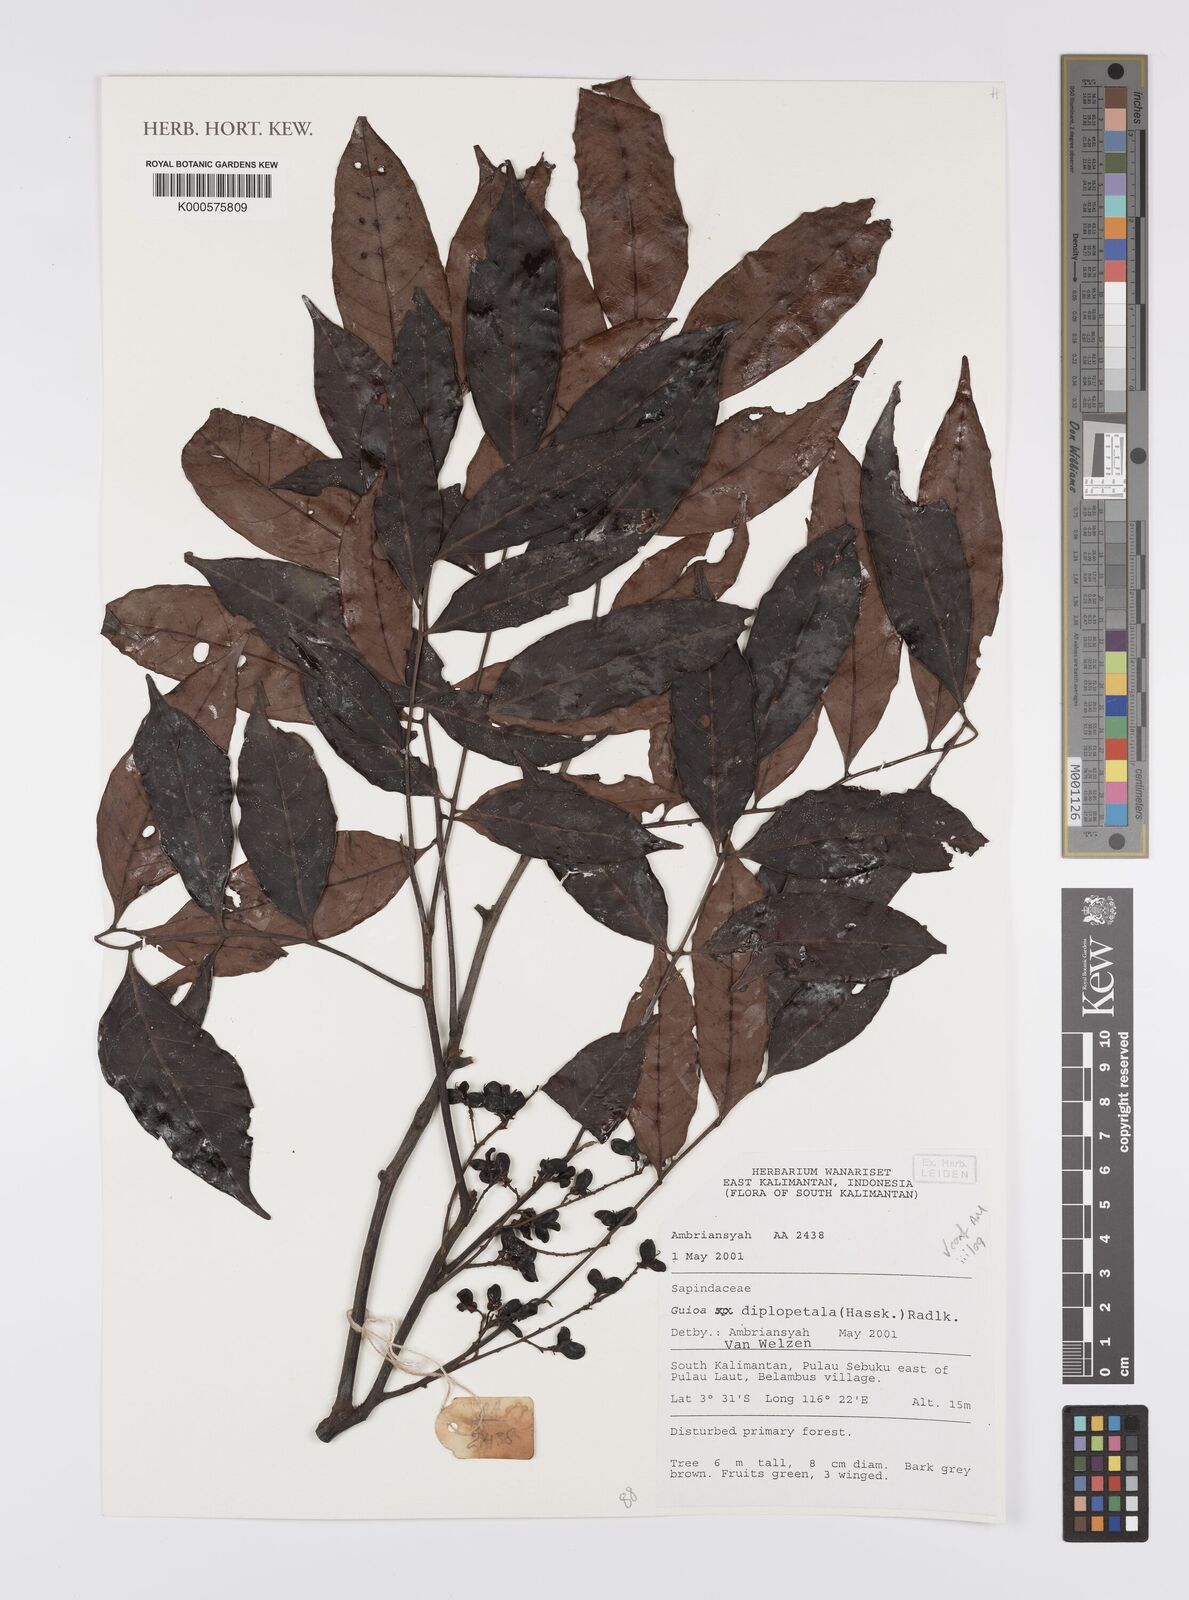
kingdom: Plantae
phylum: Tracheophyta
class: Magnoliopsida
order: Sapindales
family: Sapindaceae
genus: Guioa
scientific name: Guioa diplopetala
